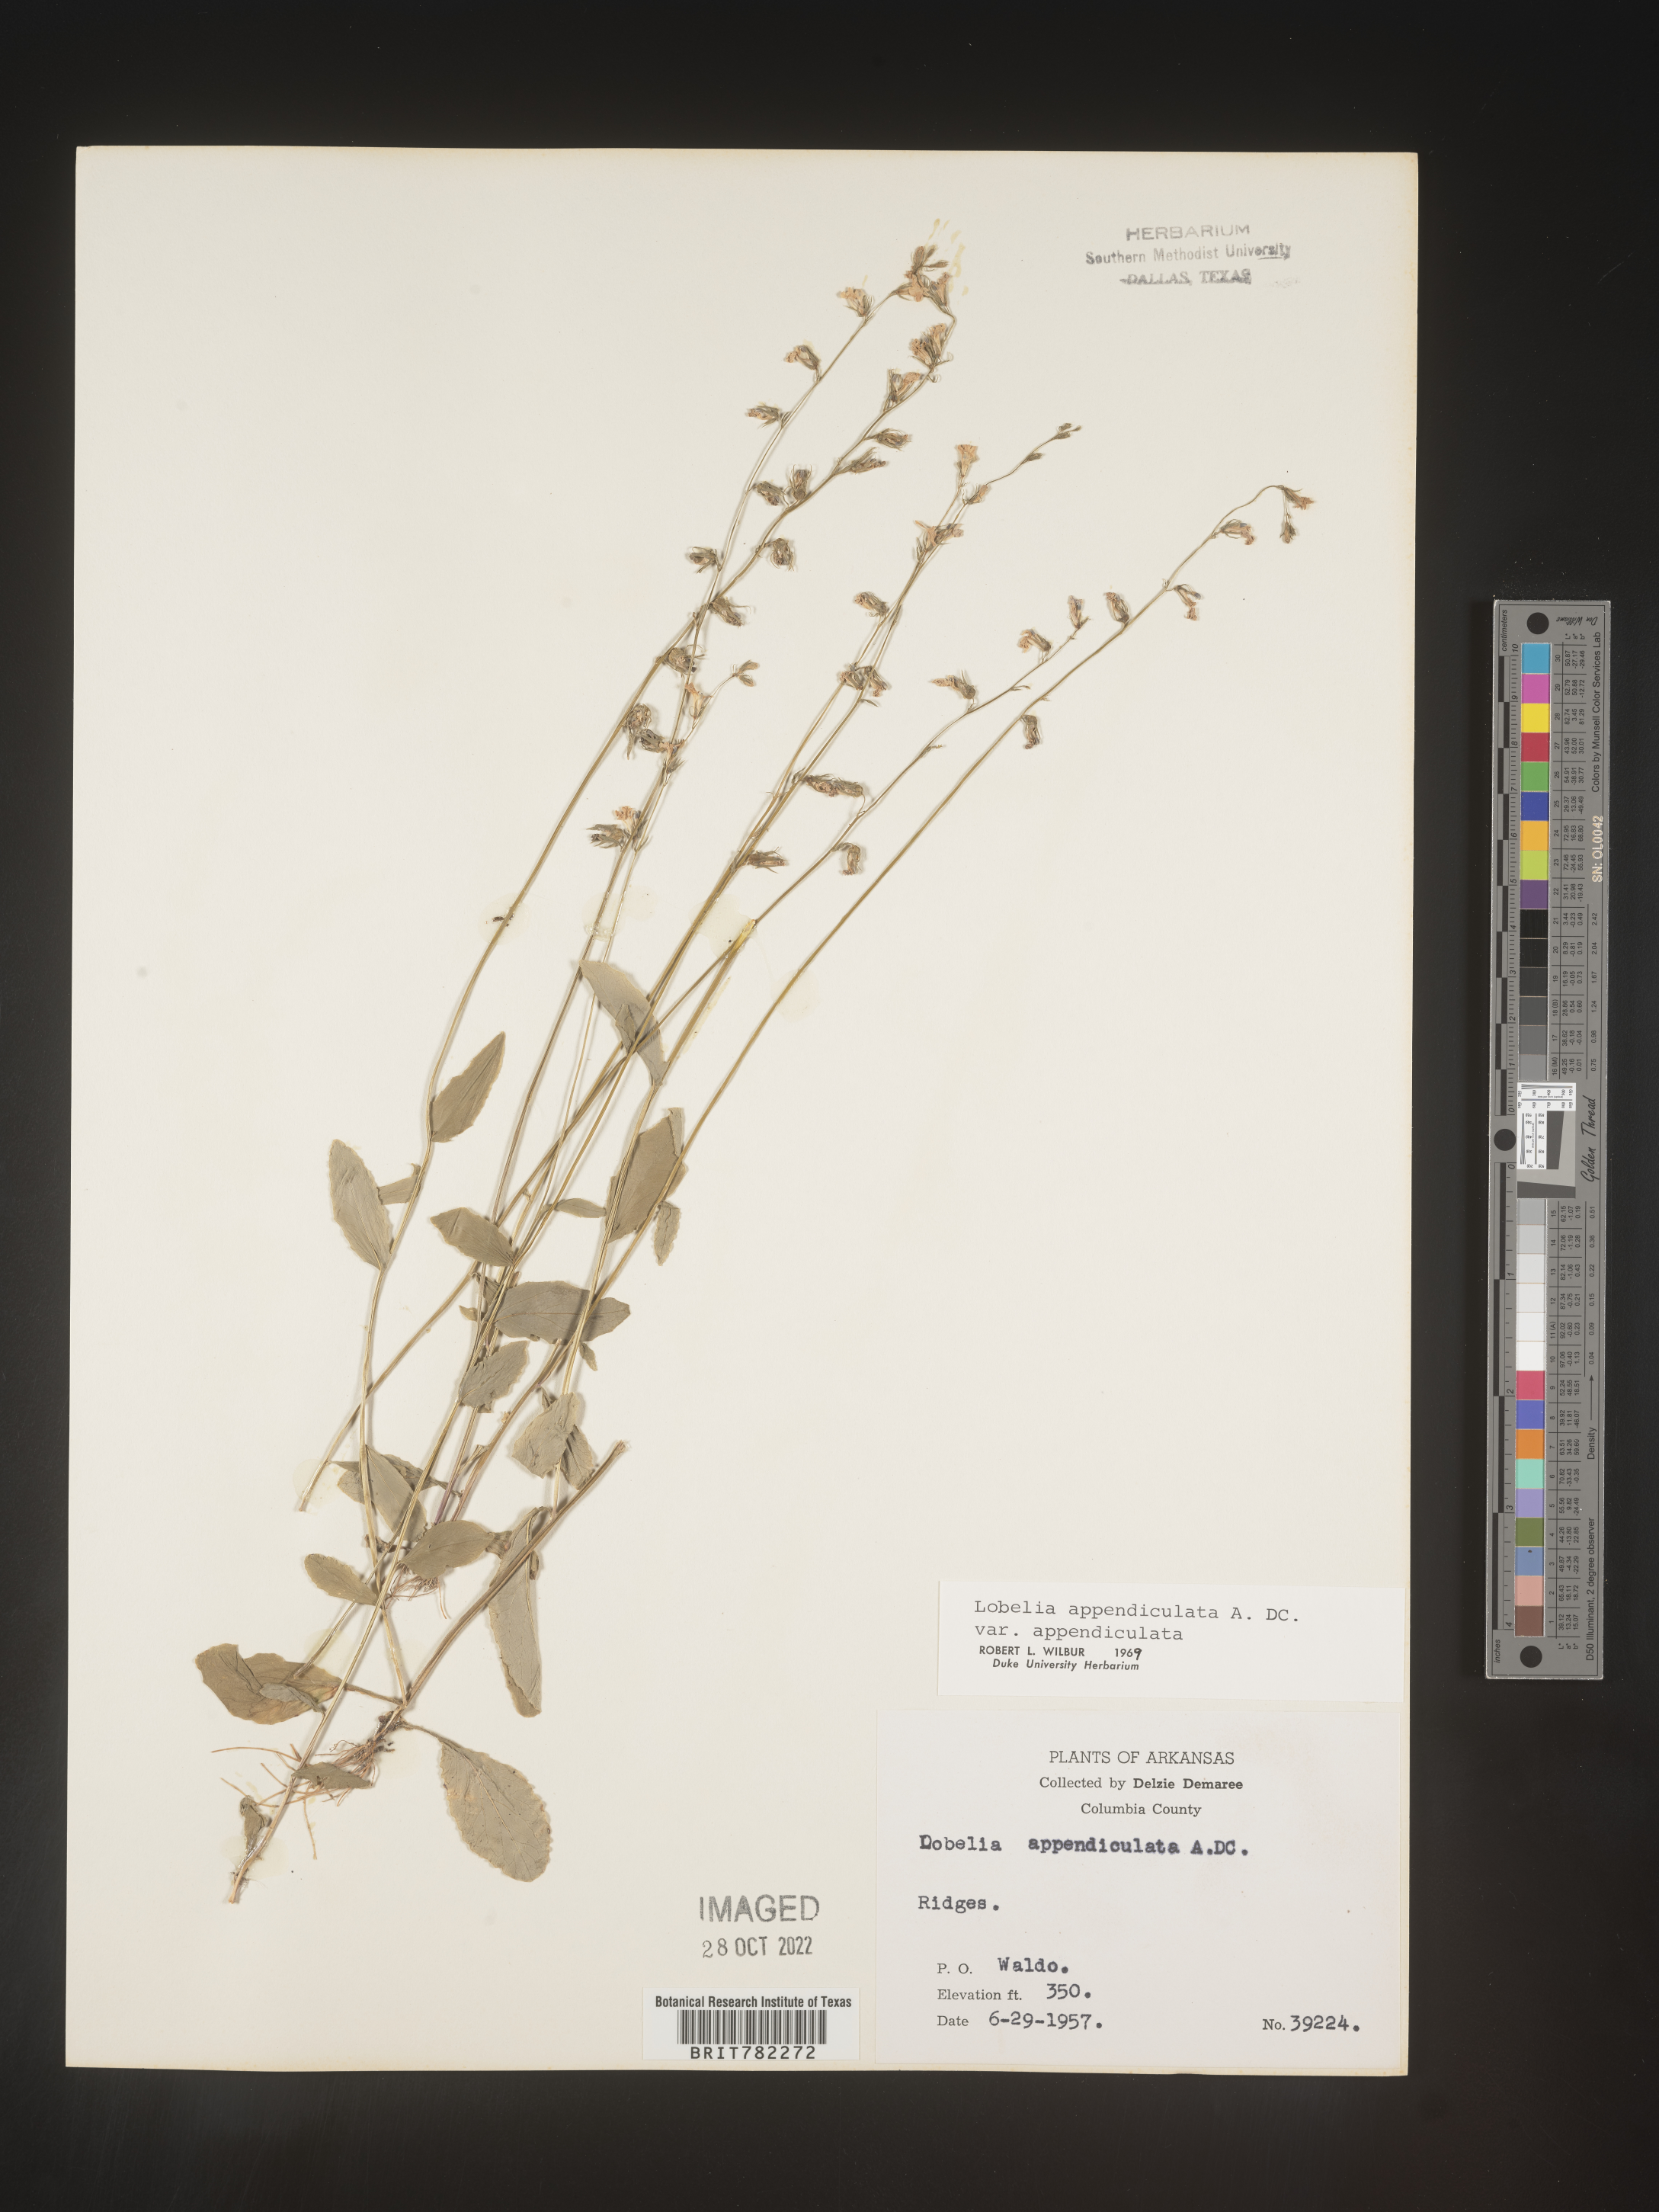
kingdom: Plantae
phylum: Tracheophyta
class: Magnoliopsida
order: Asterales
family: Campanulaceae
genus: Lobelia
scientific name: Lobelia appendiculata
